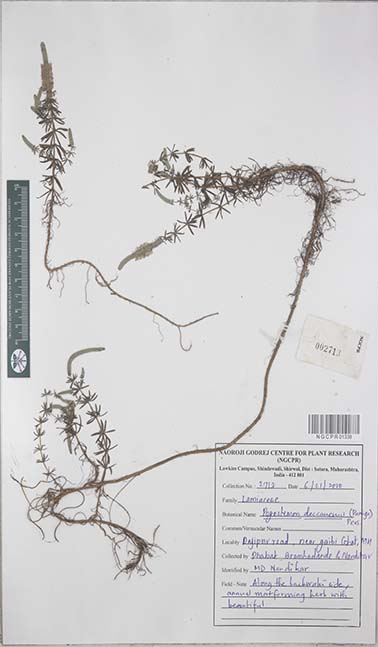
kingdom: Plantae
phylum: Tracheophyta
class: Magnoliopsida
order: Lamiales
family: Lamiaceae
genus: Pogostemon
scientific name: Pogostemon deccanensis
